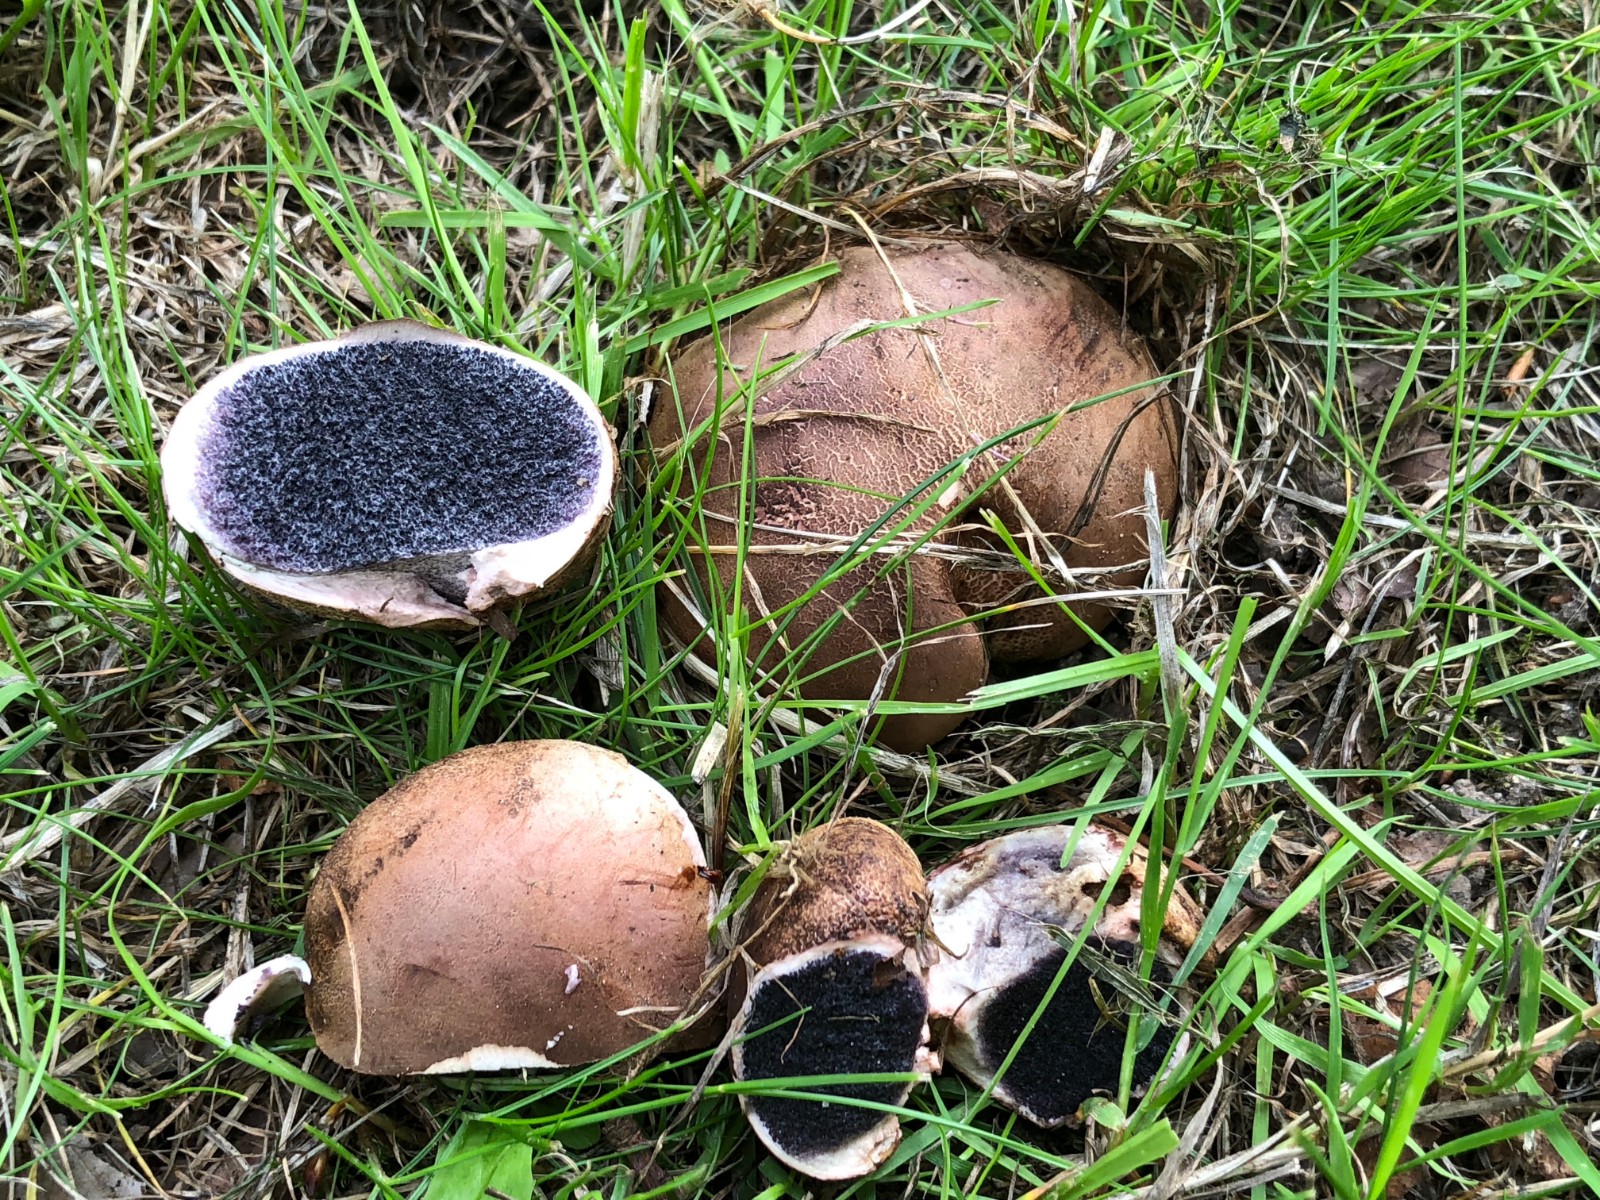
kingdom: Fungi
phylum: Basidiomycota
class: Agaricomycetes
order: Boletales
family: Sclerodermataceae
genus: Scleroderma
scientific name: Scleroderma cepa
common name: rødbrun bruskbold
